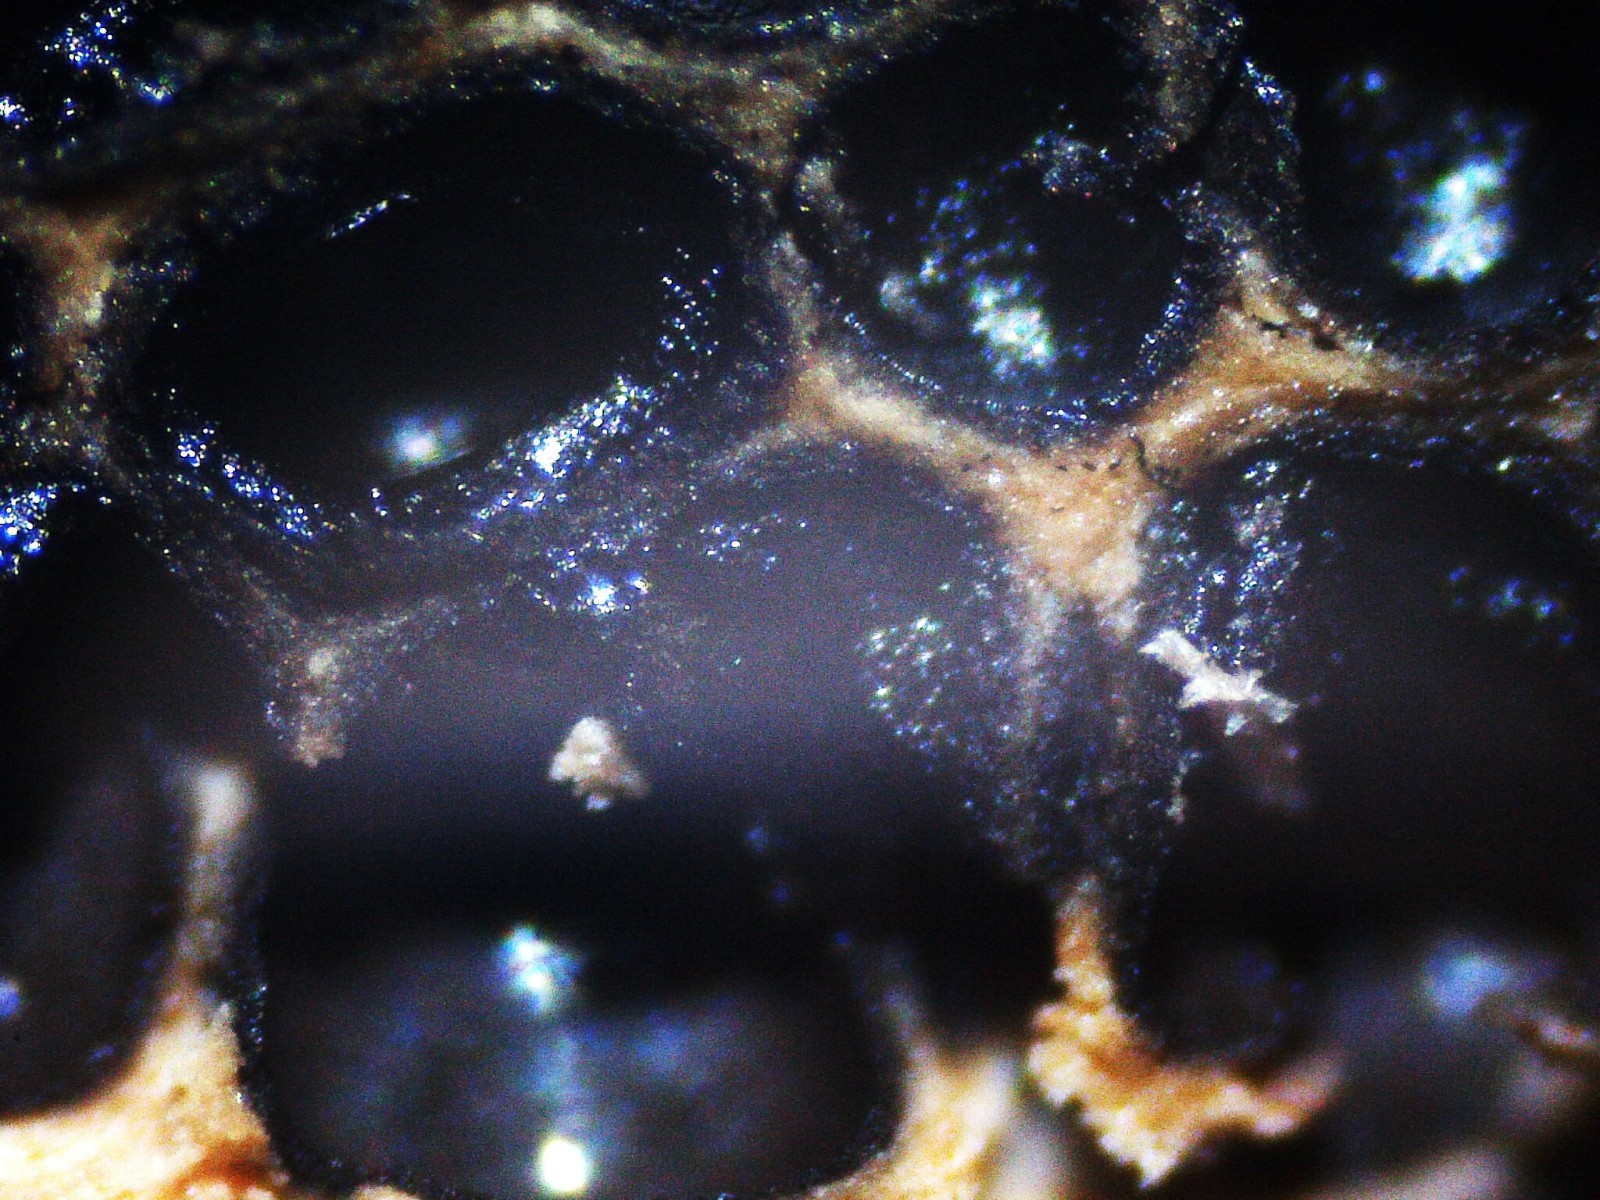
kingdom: Fungi
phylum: Ascomycota
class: Sordariomycetes
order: Xylariales
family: Lopadostomataceae
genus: Lopadostoma
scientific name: Lopadostoma pouzarii
